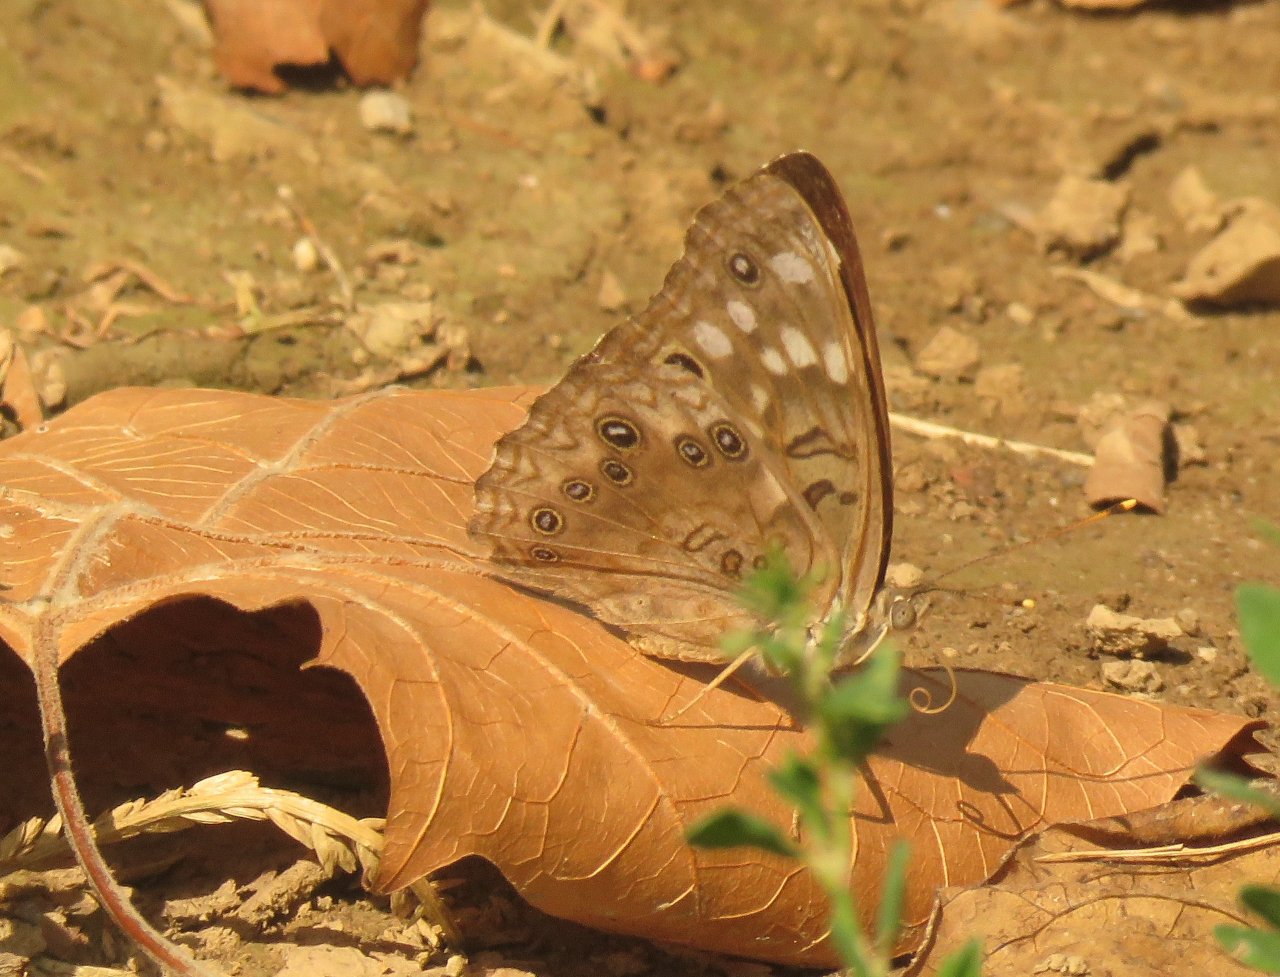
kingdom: Animalia
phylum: Arthropoda
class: Insecta
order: Lepidoptera
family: Nymphalidae
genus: Asterocampa
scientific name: Asterocampa celtis
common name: Hackberry Emperor
